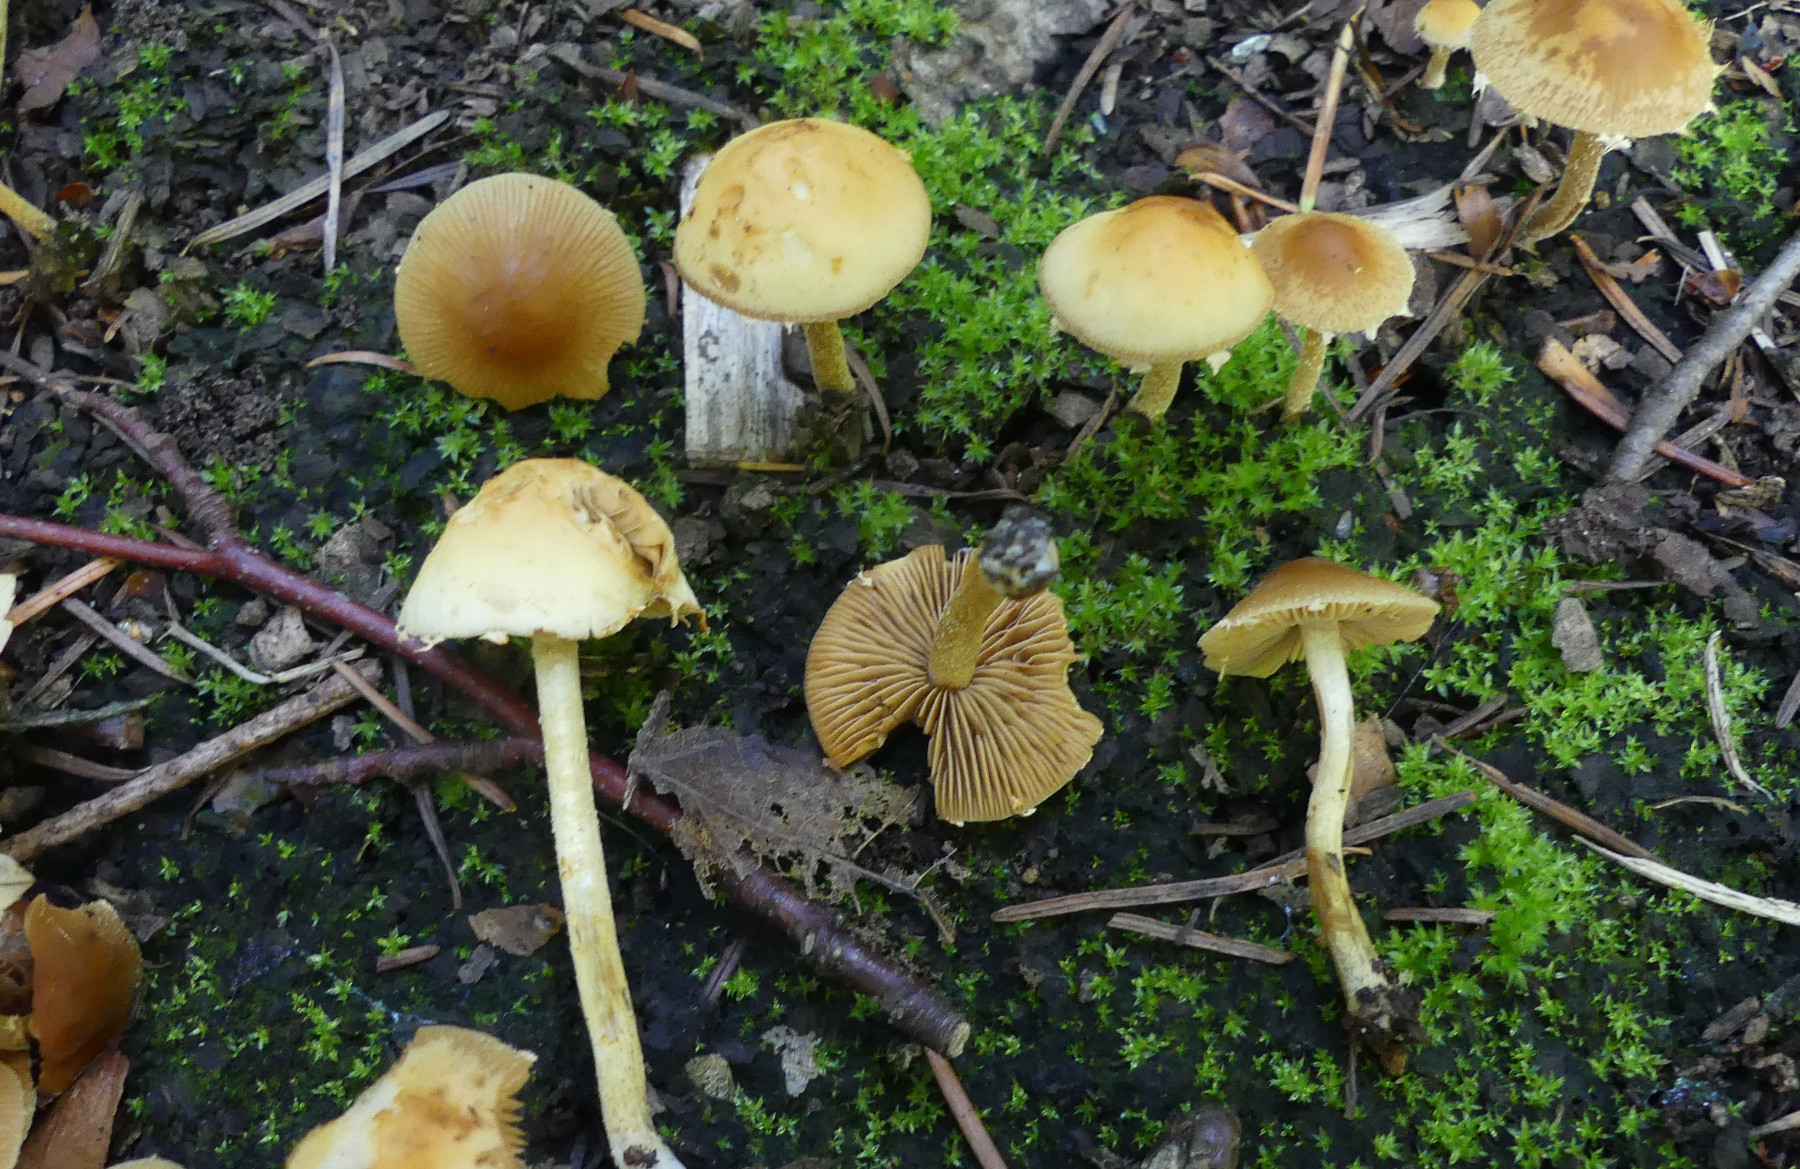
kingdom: Fungi
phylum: Basidiomycota
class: Agaricomycetes
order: Agaricales
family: Bolbitiaceae
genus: Conocybe
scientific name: Conocybe velata
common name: tandet dansehat
